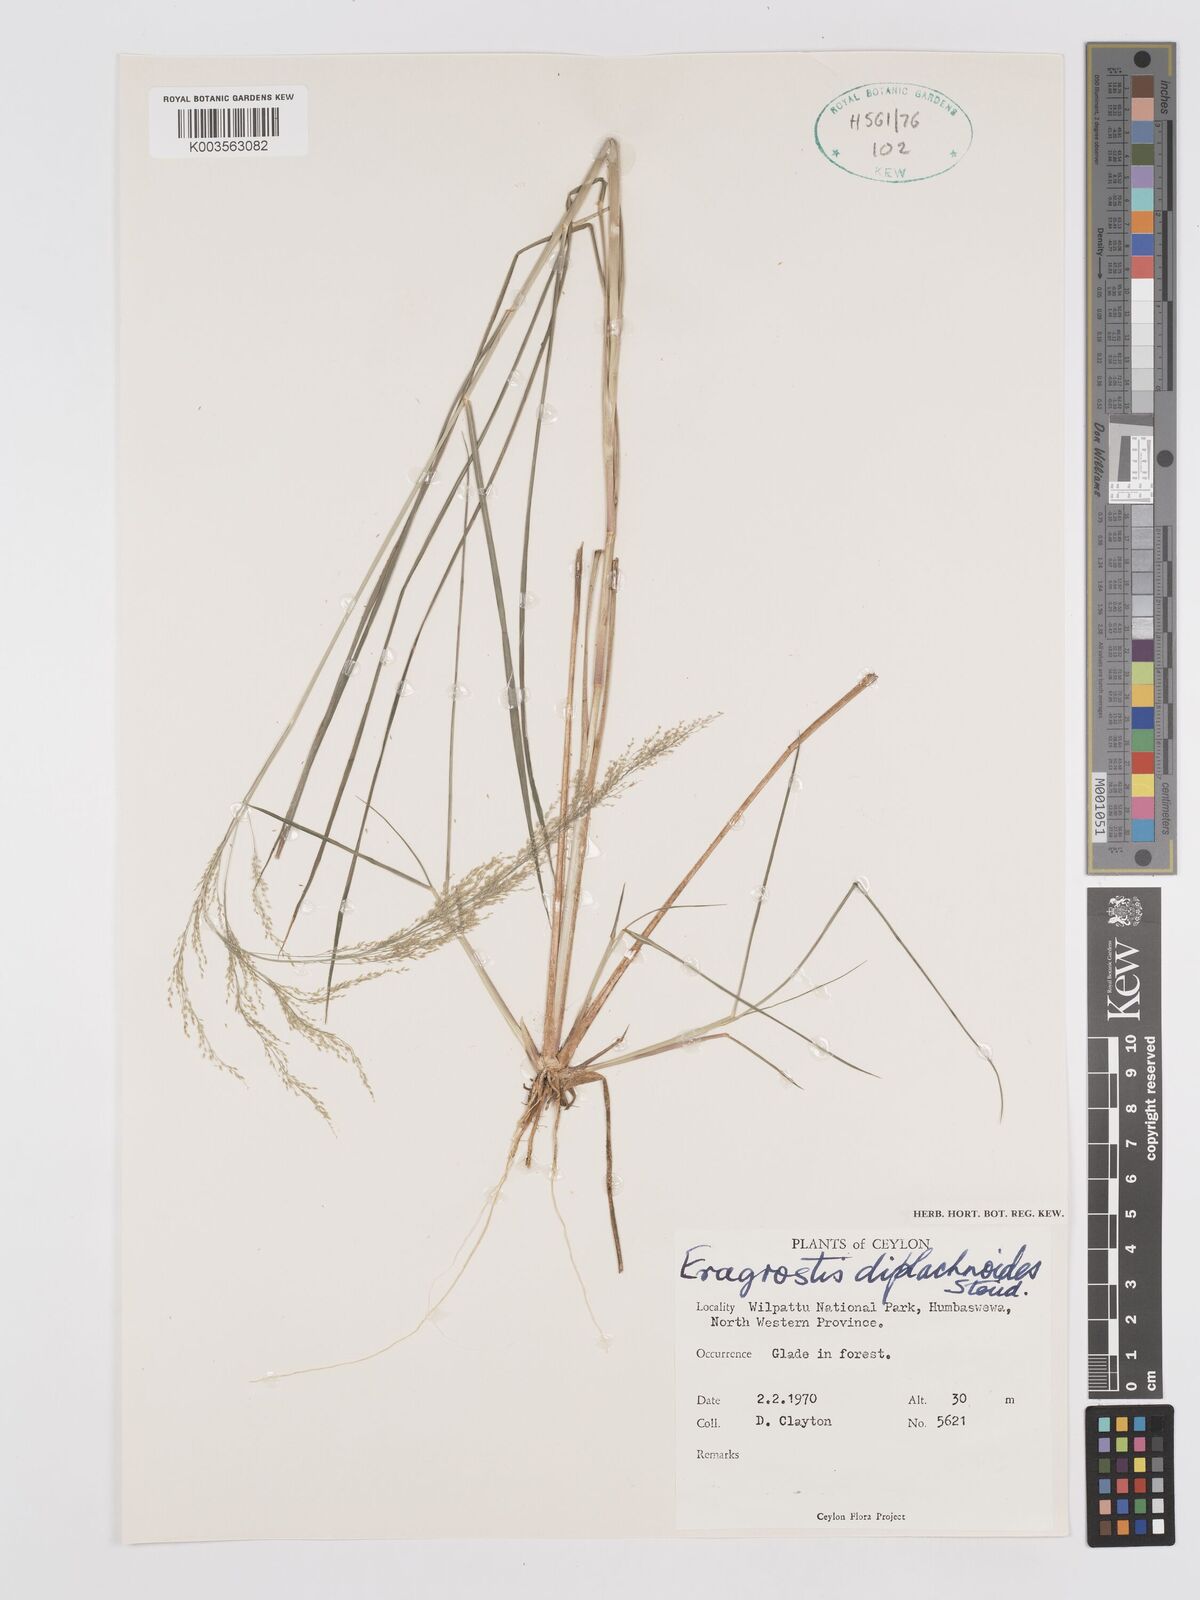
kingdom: Plantae
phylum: Tracheophyta
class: Liliopsida
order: Poales
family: Poaceae
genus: Eragrostis
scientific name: Eragrostis japonica
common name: Pond lovegrass
